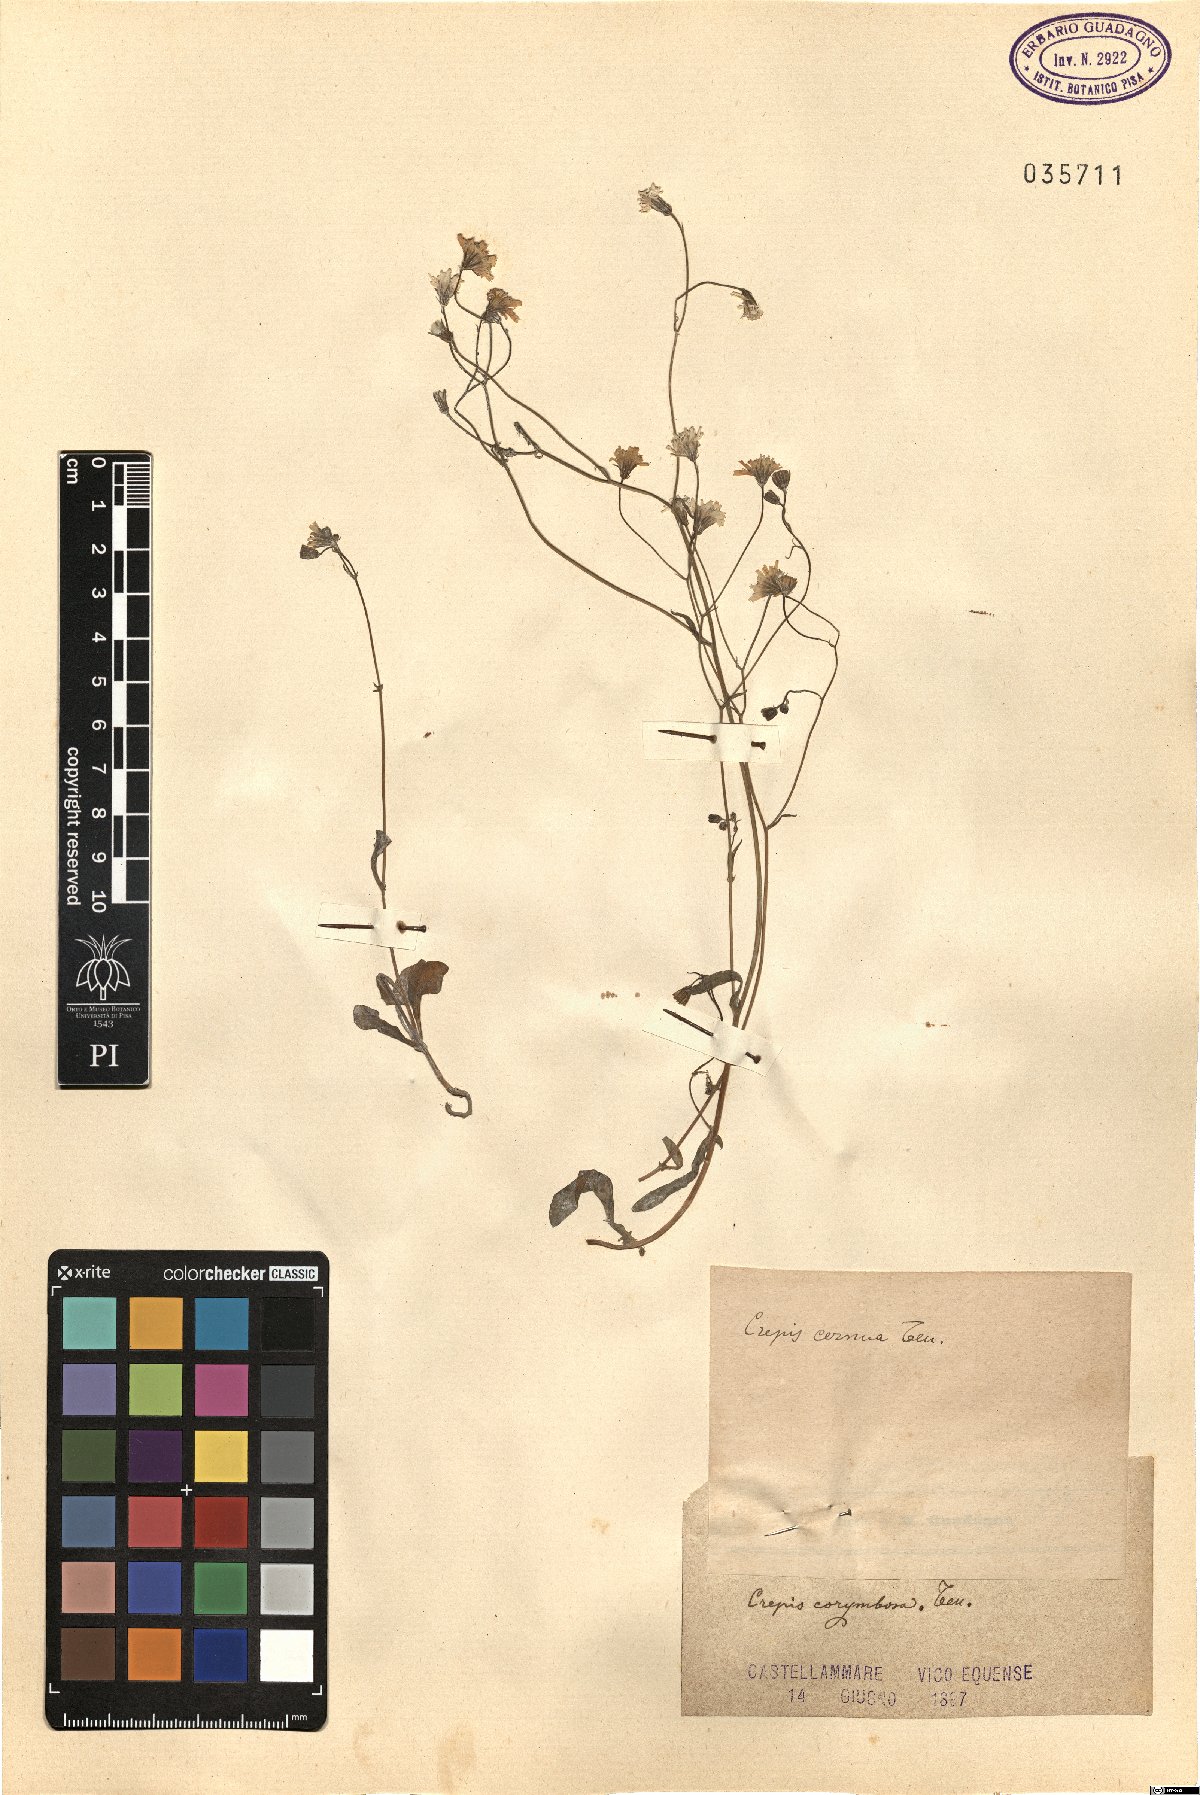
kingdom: Plantae
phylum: Tracheophyta
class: Magnoliopsida
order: Asterales
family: Asteraceae
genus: Crepis
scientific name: Crepis neglecta
